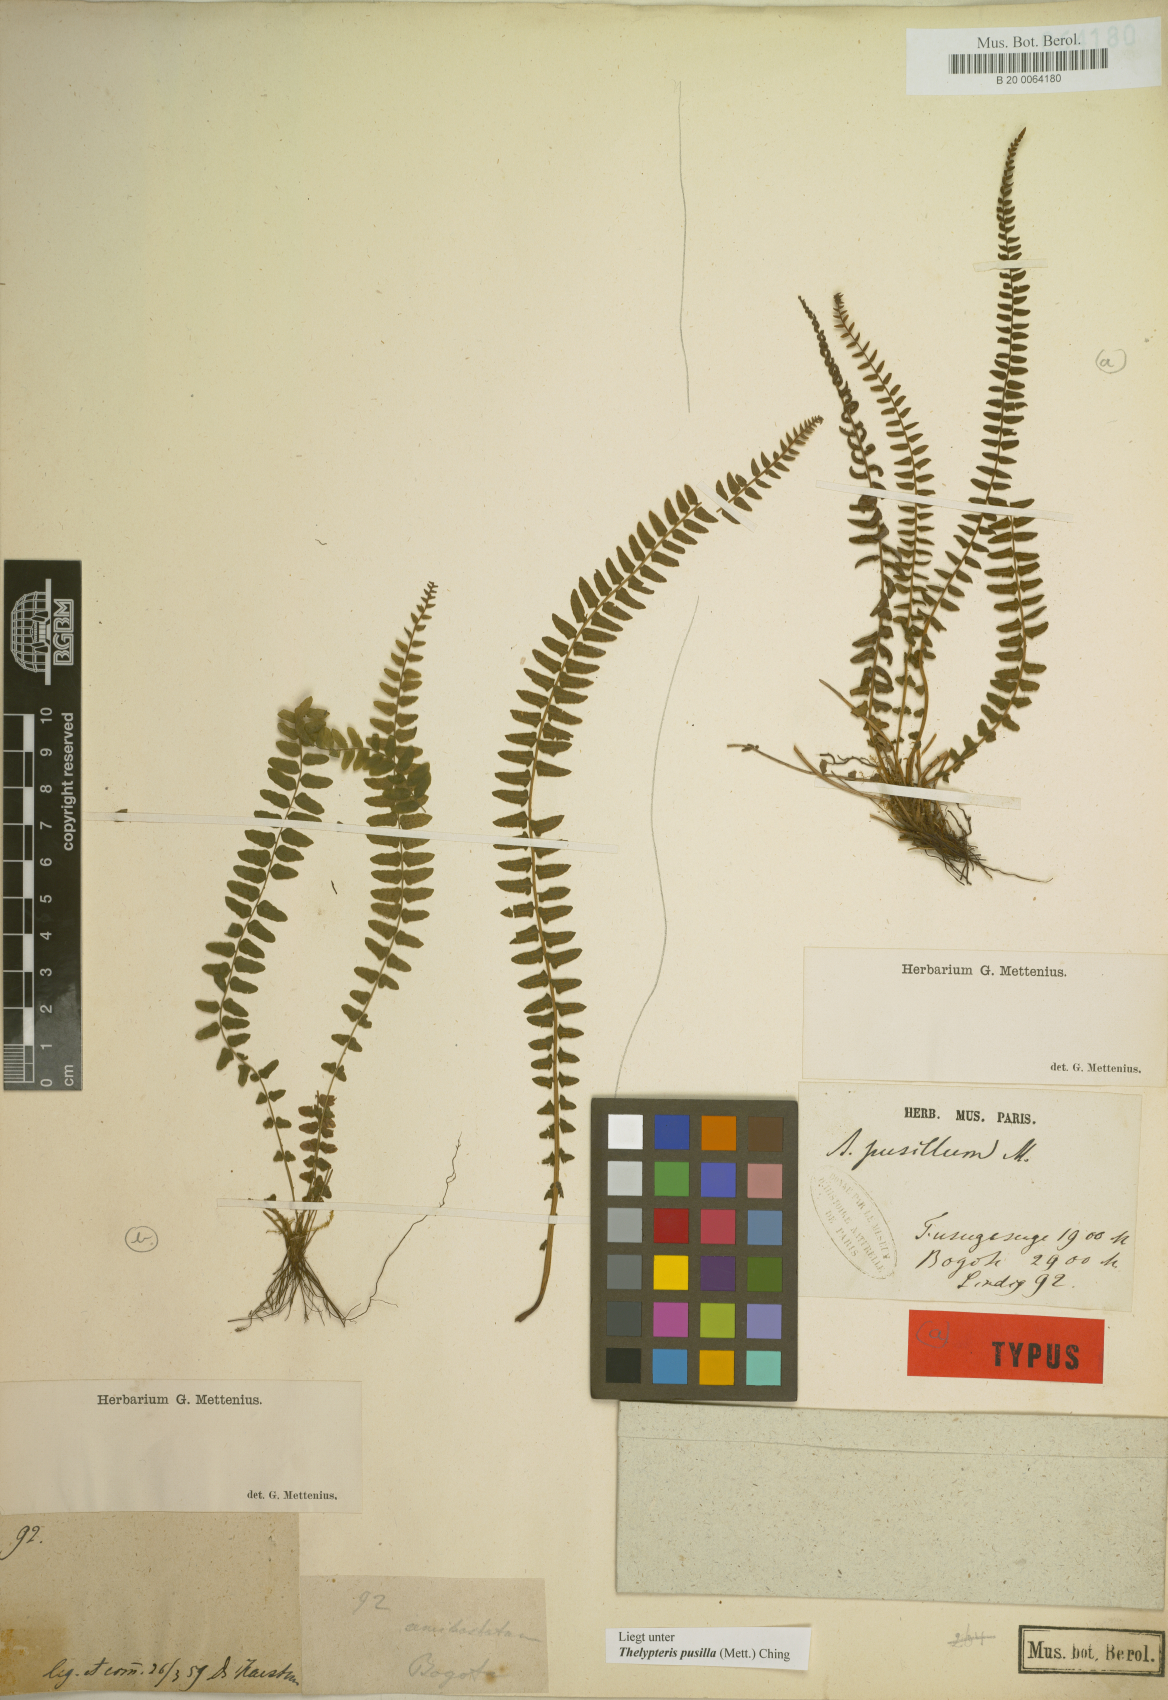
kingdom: Plantae
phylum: Tracheophyta
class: Polypodiopsida
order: Polypodiales
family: Thelypteridaceae
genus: Amauropelta
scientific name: Amauropelta pusilla
